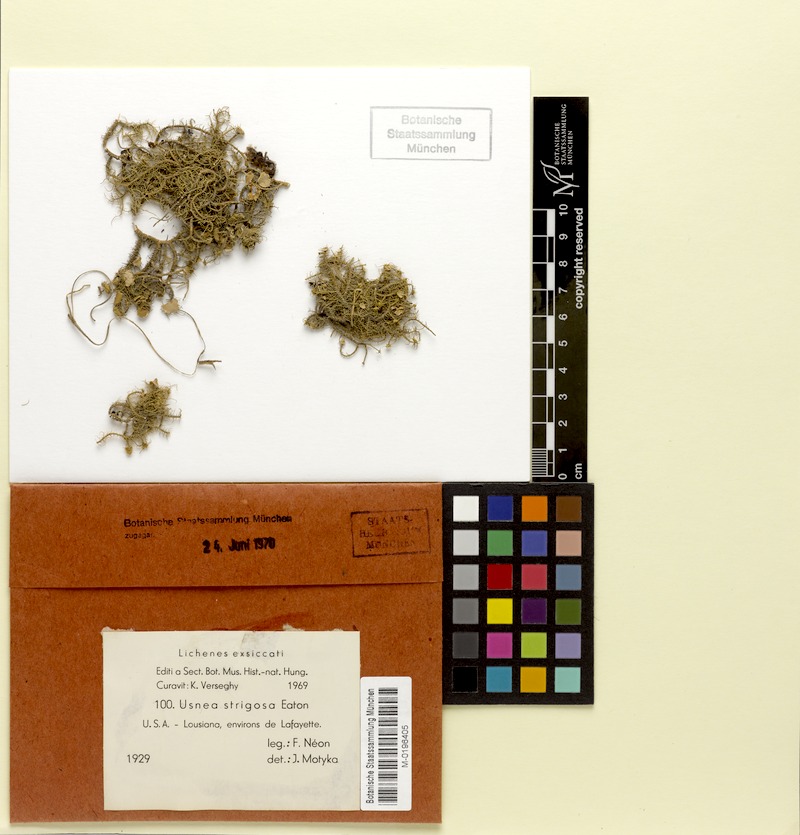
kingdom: Fungi
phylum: Ascomycota
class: Lecanoromycetes
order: Lecanorales
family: Parmeliaceae
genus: Usnea
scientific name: Usnea strigosa
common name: Bushy beard lichen
